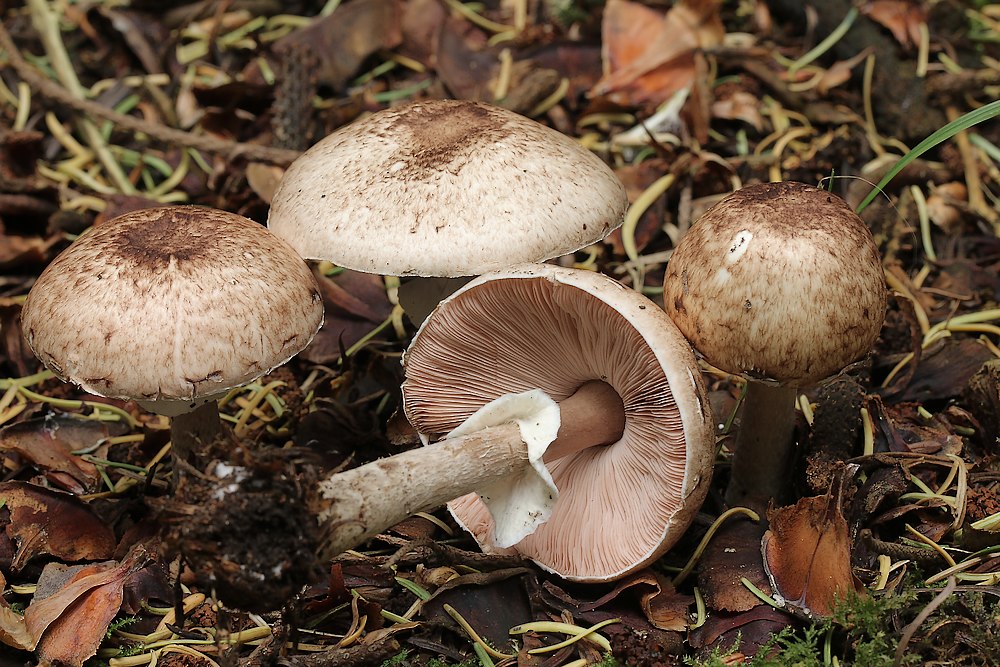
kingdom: Fungi
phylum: Basidiomycota
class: Agaricomycetes
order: Agaricales
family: Agaricaceae
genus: Agaricus
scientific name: Agaricus
